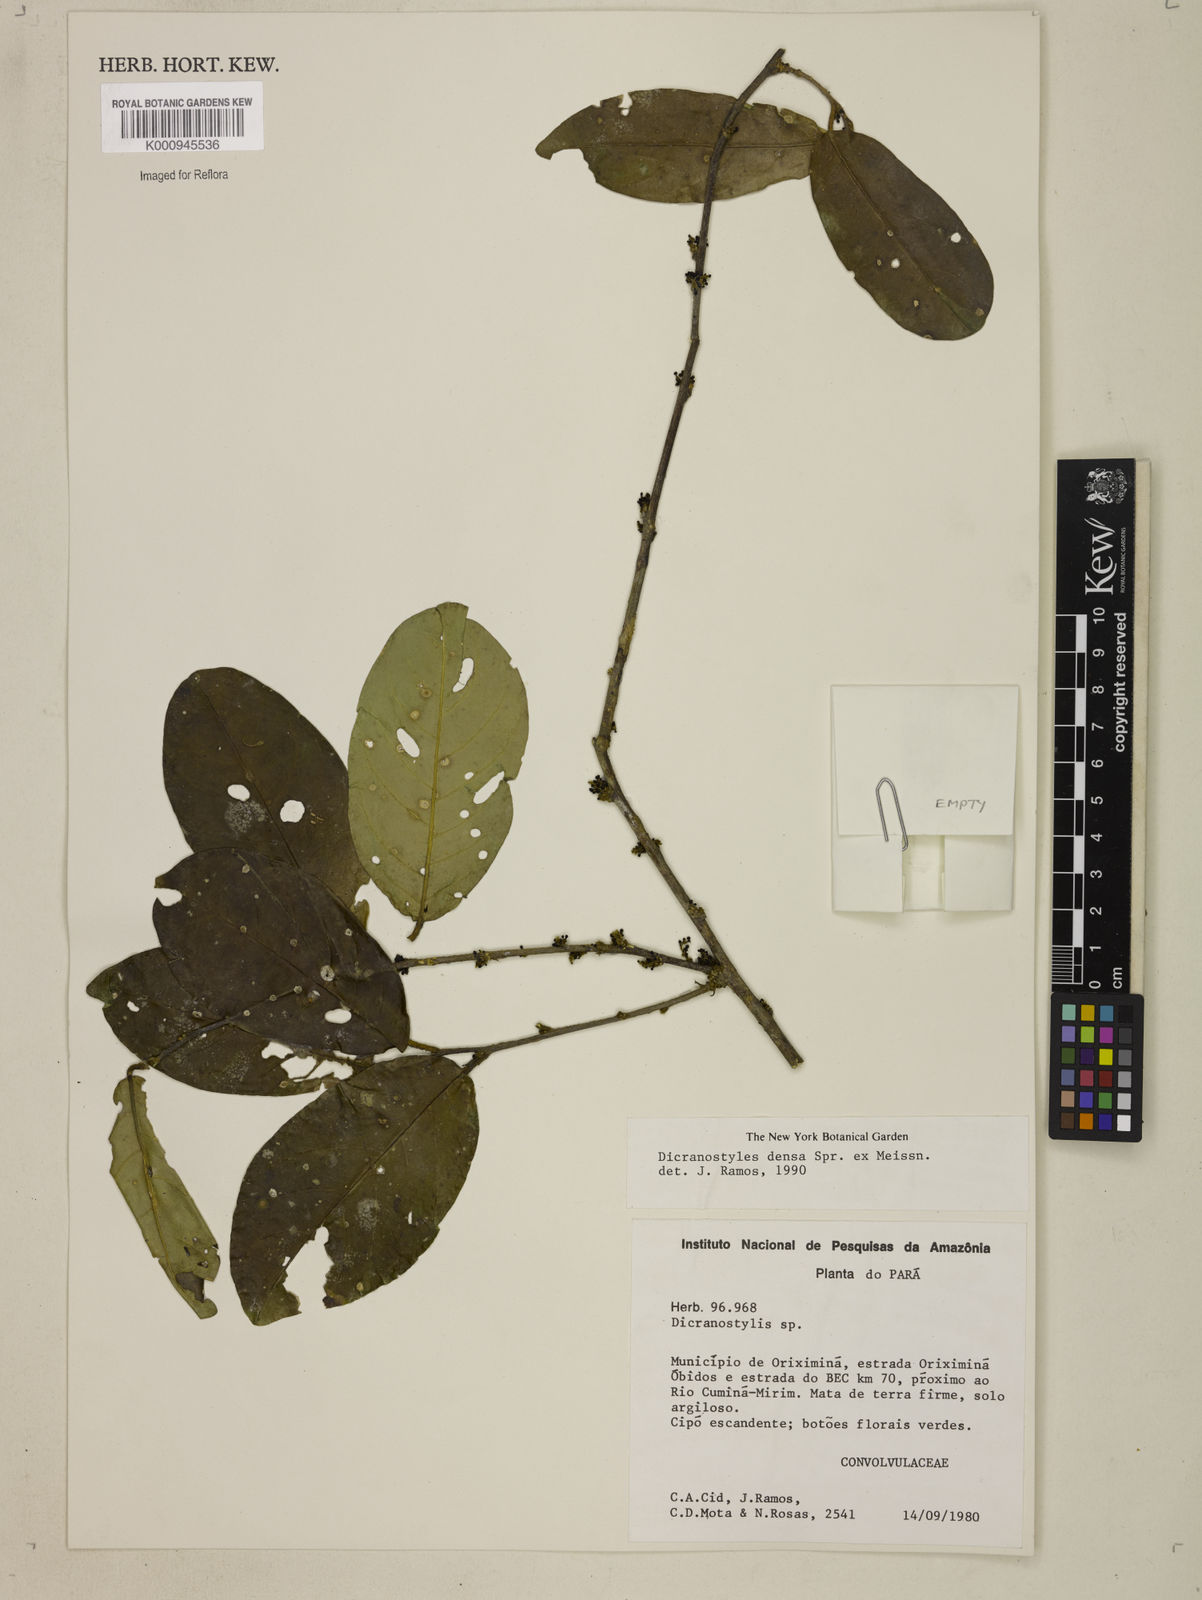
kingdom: Plantae
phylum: Tracheophyta
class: Magnoliopsida
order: Solanales
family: Convolvulaceae
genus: Dicranostyles
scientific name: Dicranostyles densa
